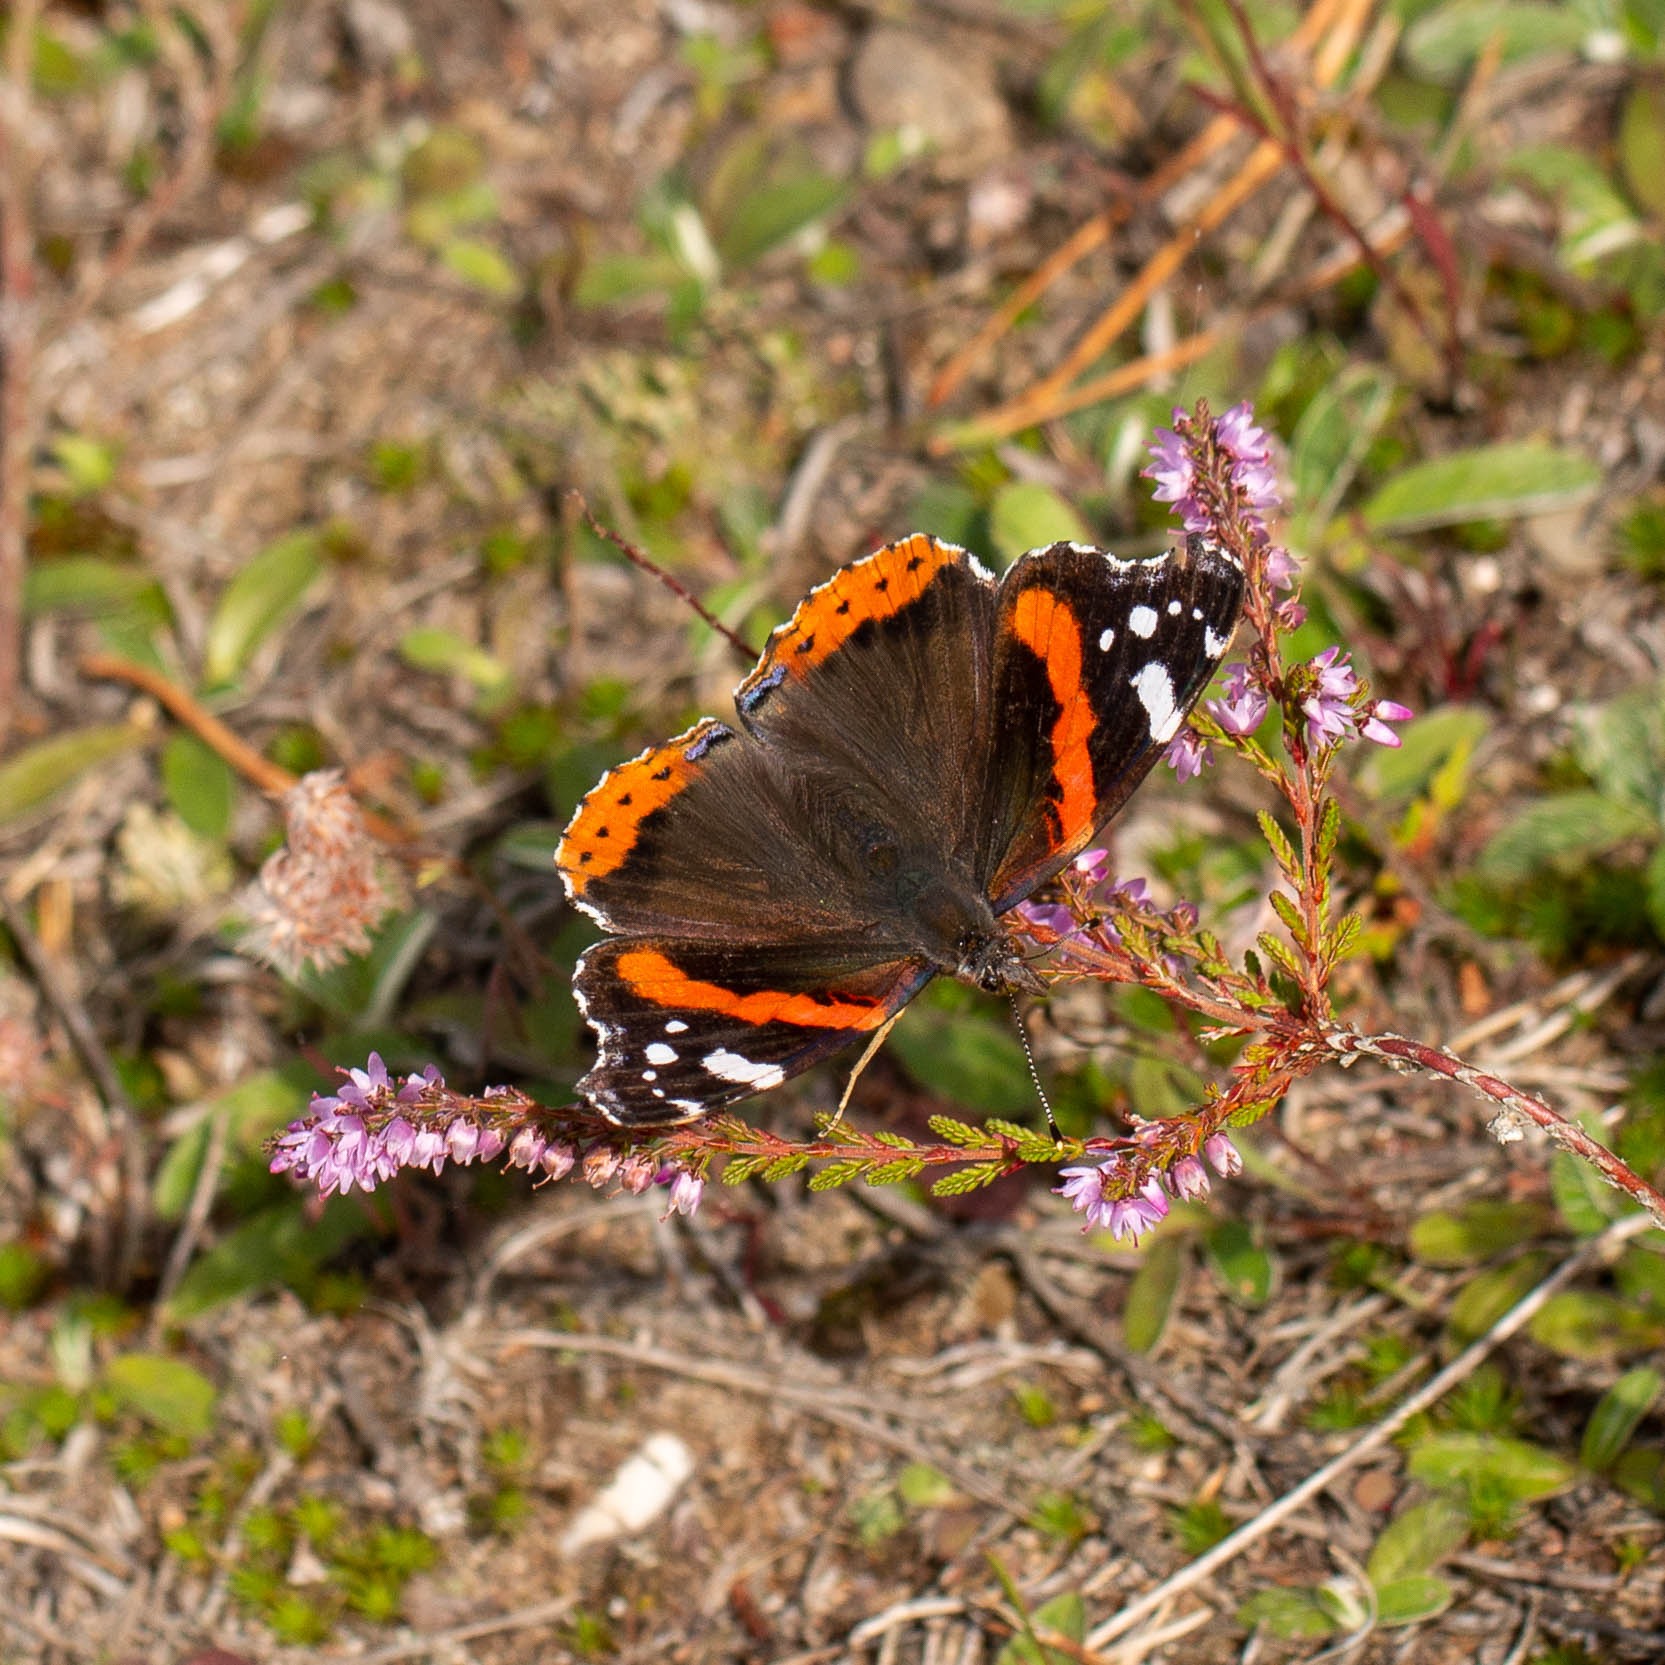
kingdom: Animalia
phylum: Arthropoda
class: Insecta
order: Lepidoptera
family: Nymphalidae
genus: Vanessa
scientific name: Vanessa atalanta
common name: Admiral
